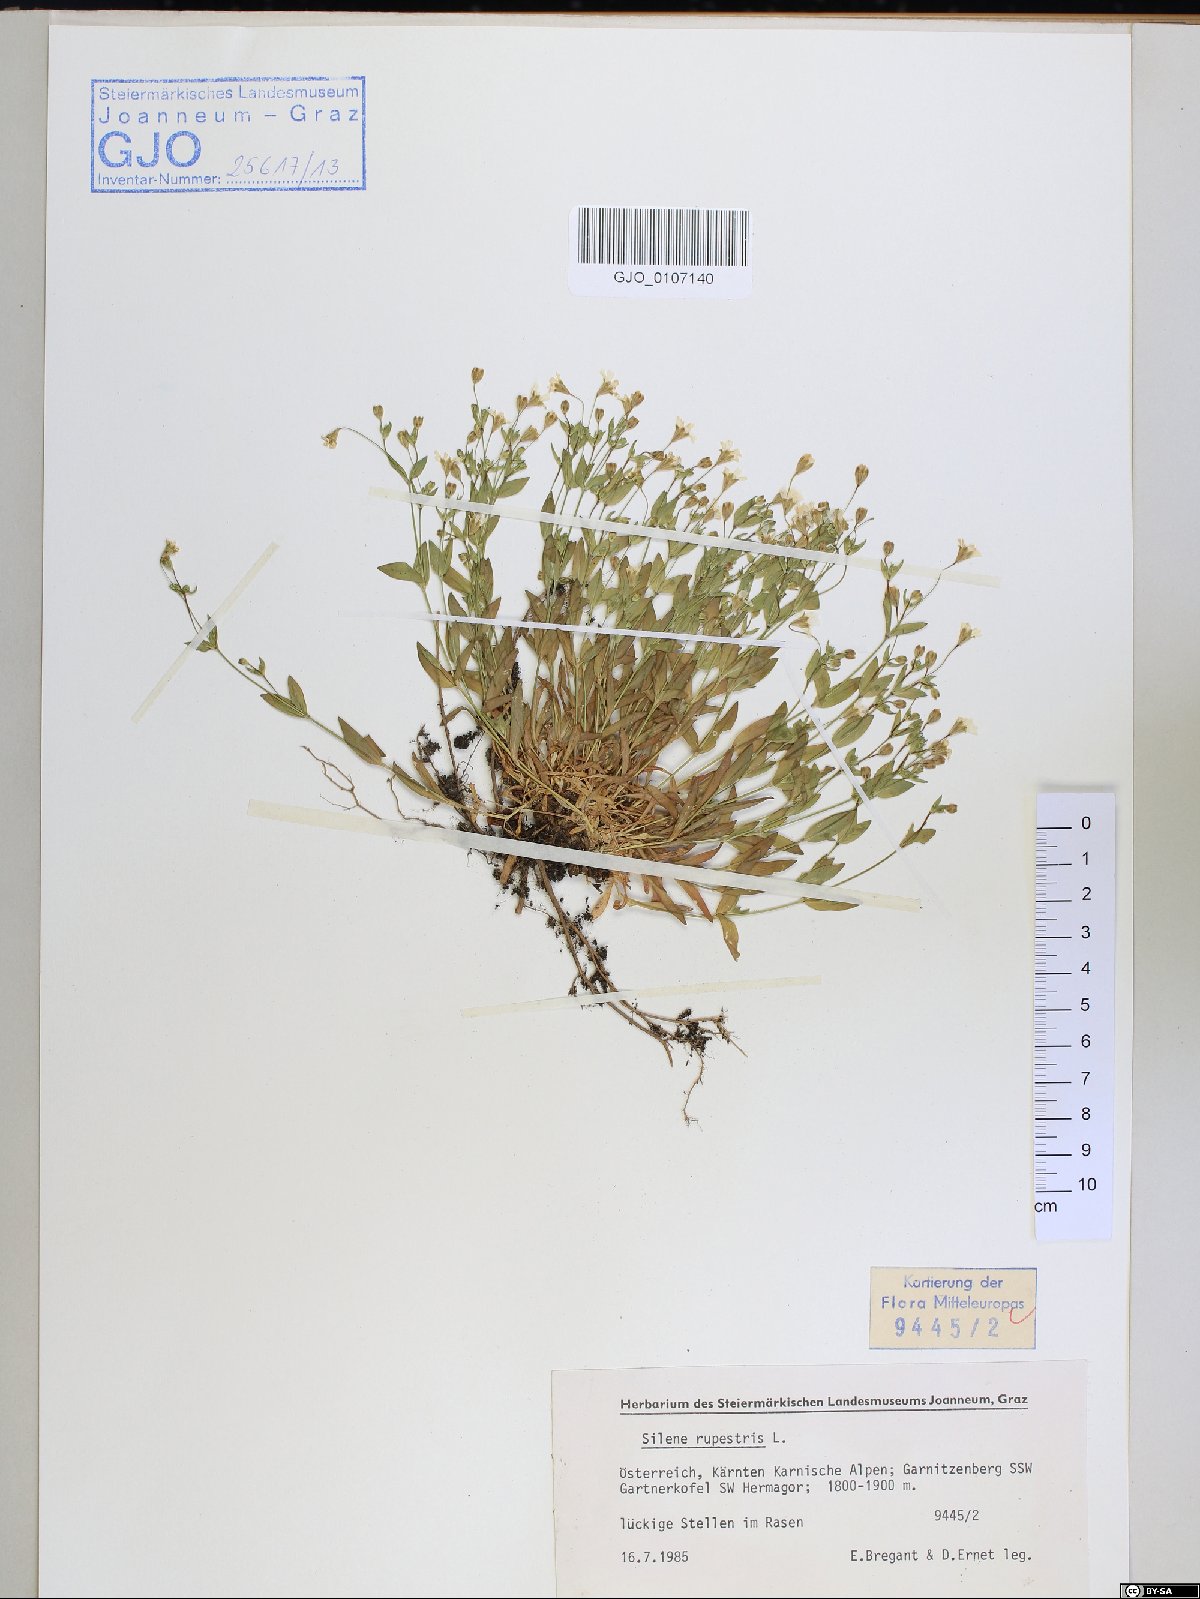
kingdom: Plantae
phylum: Tracheophyta
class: Magnoliopsida
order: Caryophyllales
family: Caryophyllaceae
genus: Atocion
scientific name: Atocion rupestre
